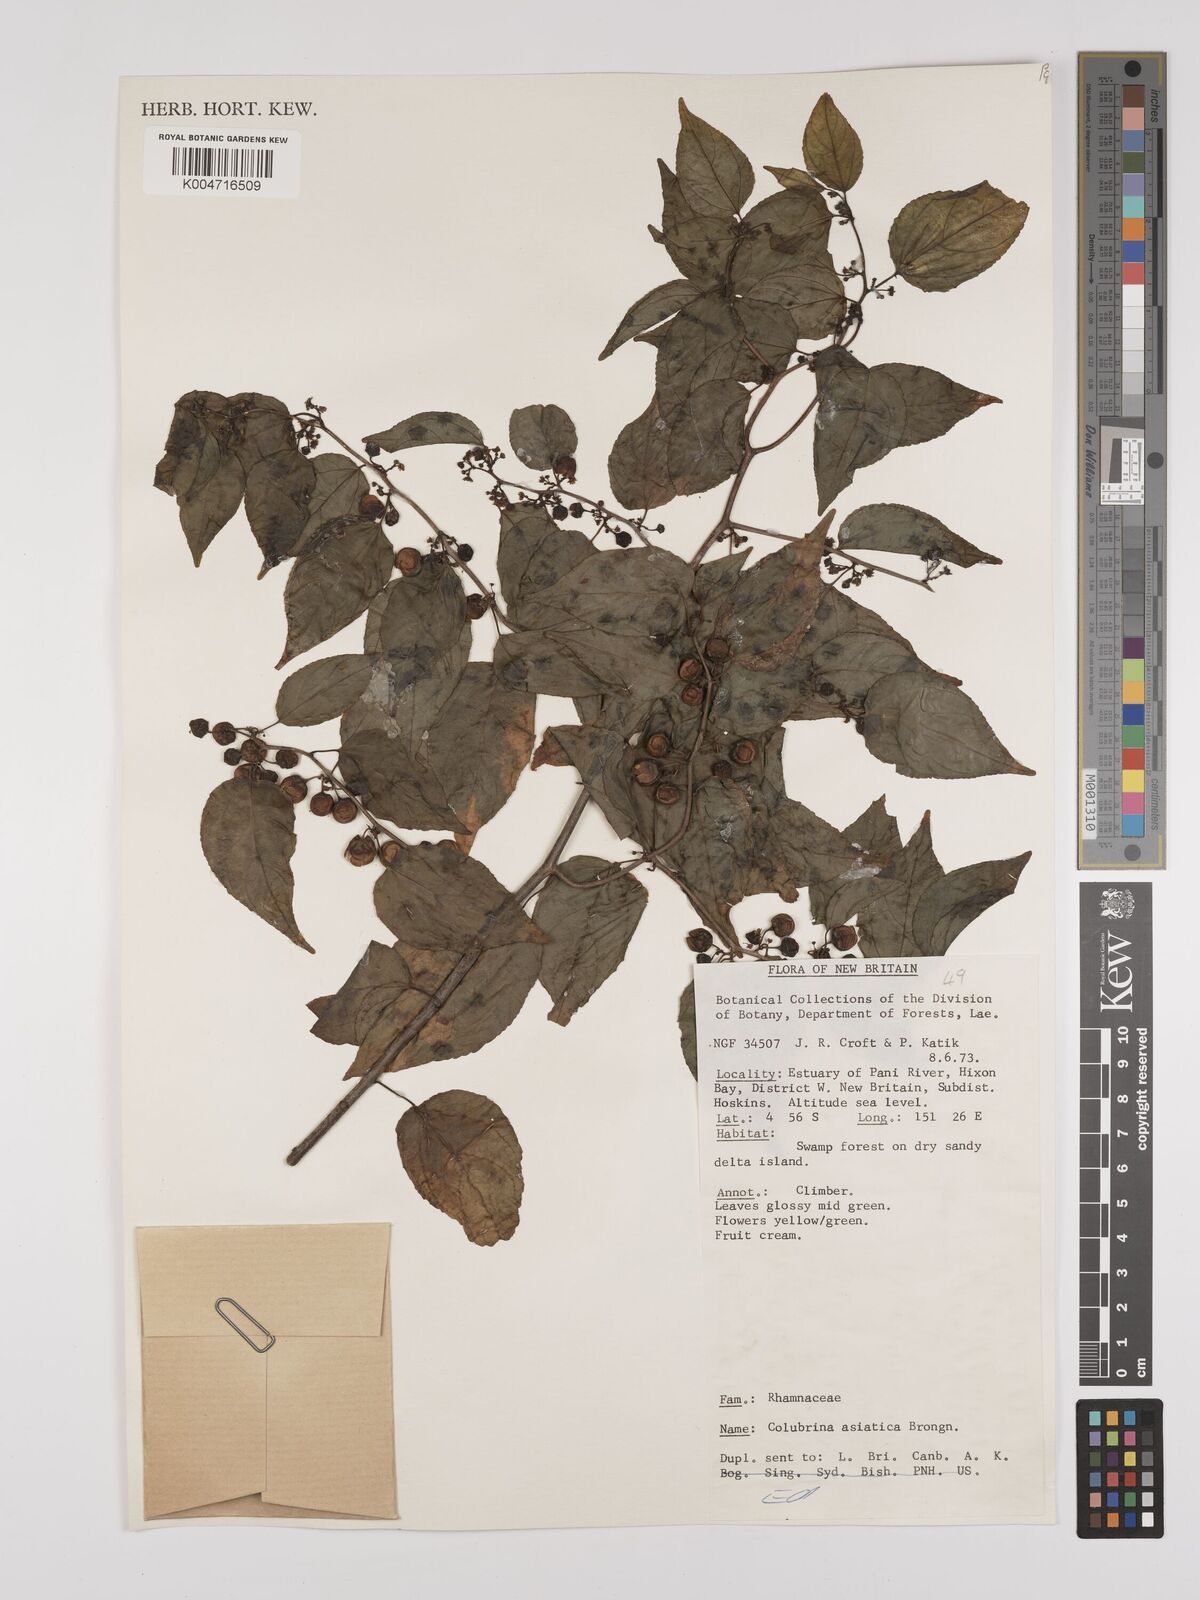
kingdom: Plantae
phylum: Tracheophyta
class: Magnoliopsida
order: Rosales
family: Rhamnaceae
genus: Colubrina
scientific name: Colubrina asiatica
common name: Asian nakedwood
